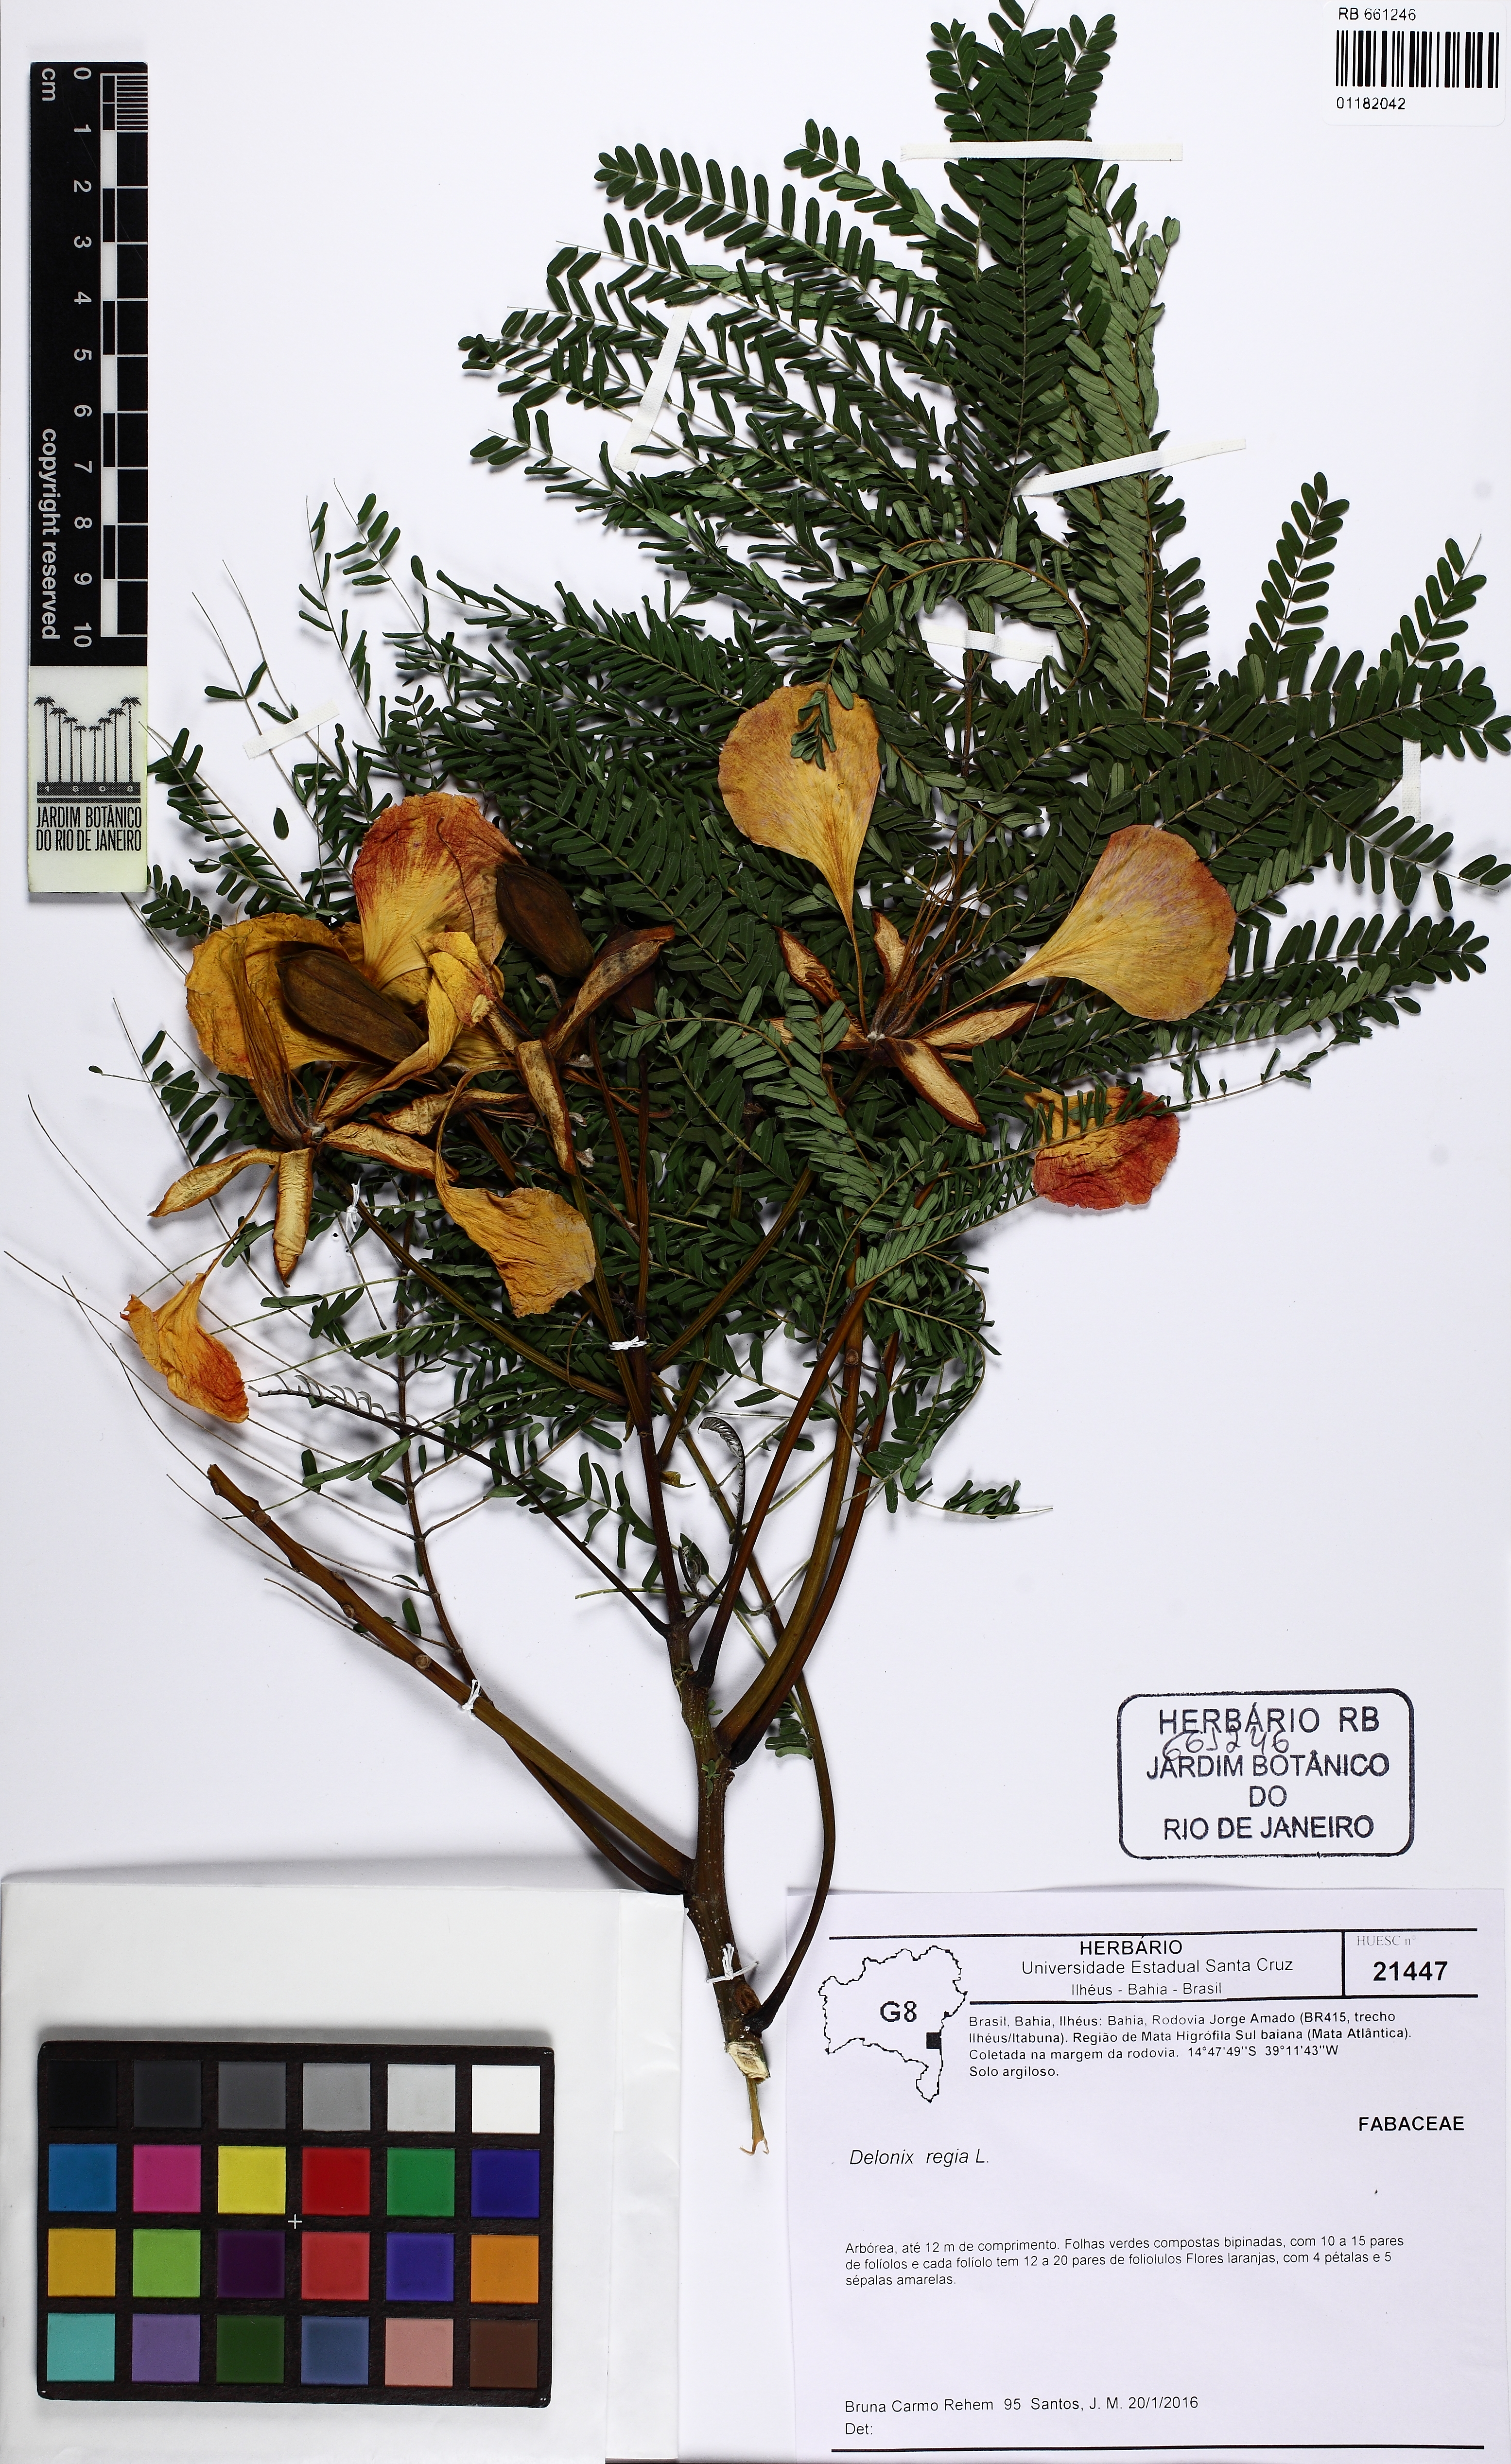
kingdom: Plantae
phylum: Tracheophyta
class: Magnoliopsida
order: Fabales
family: Fabaceae
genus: Delonix
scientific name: Delonix regia
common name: Royal poinciana
